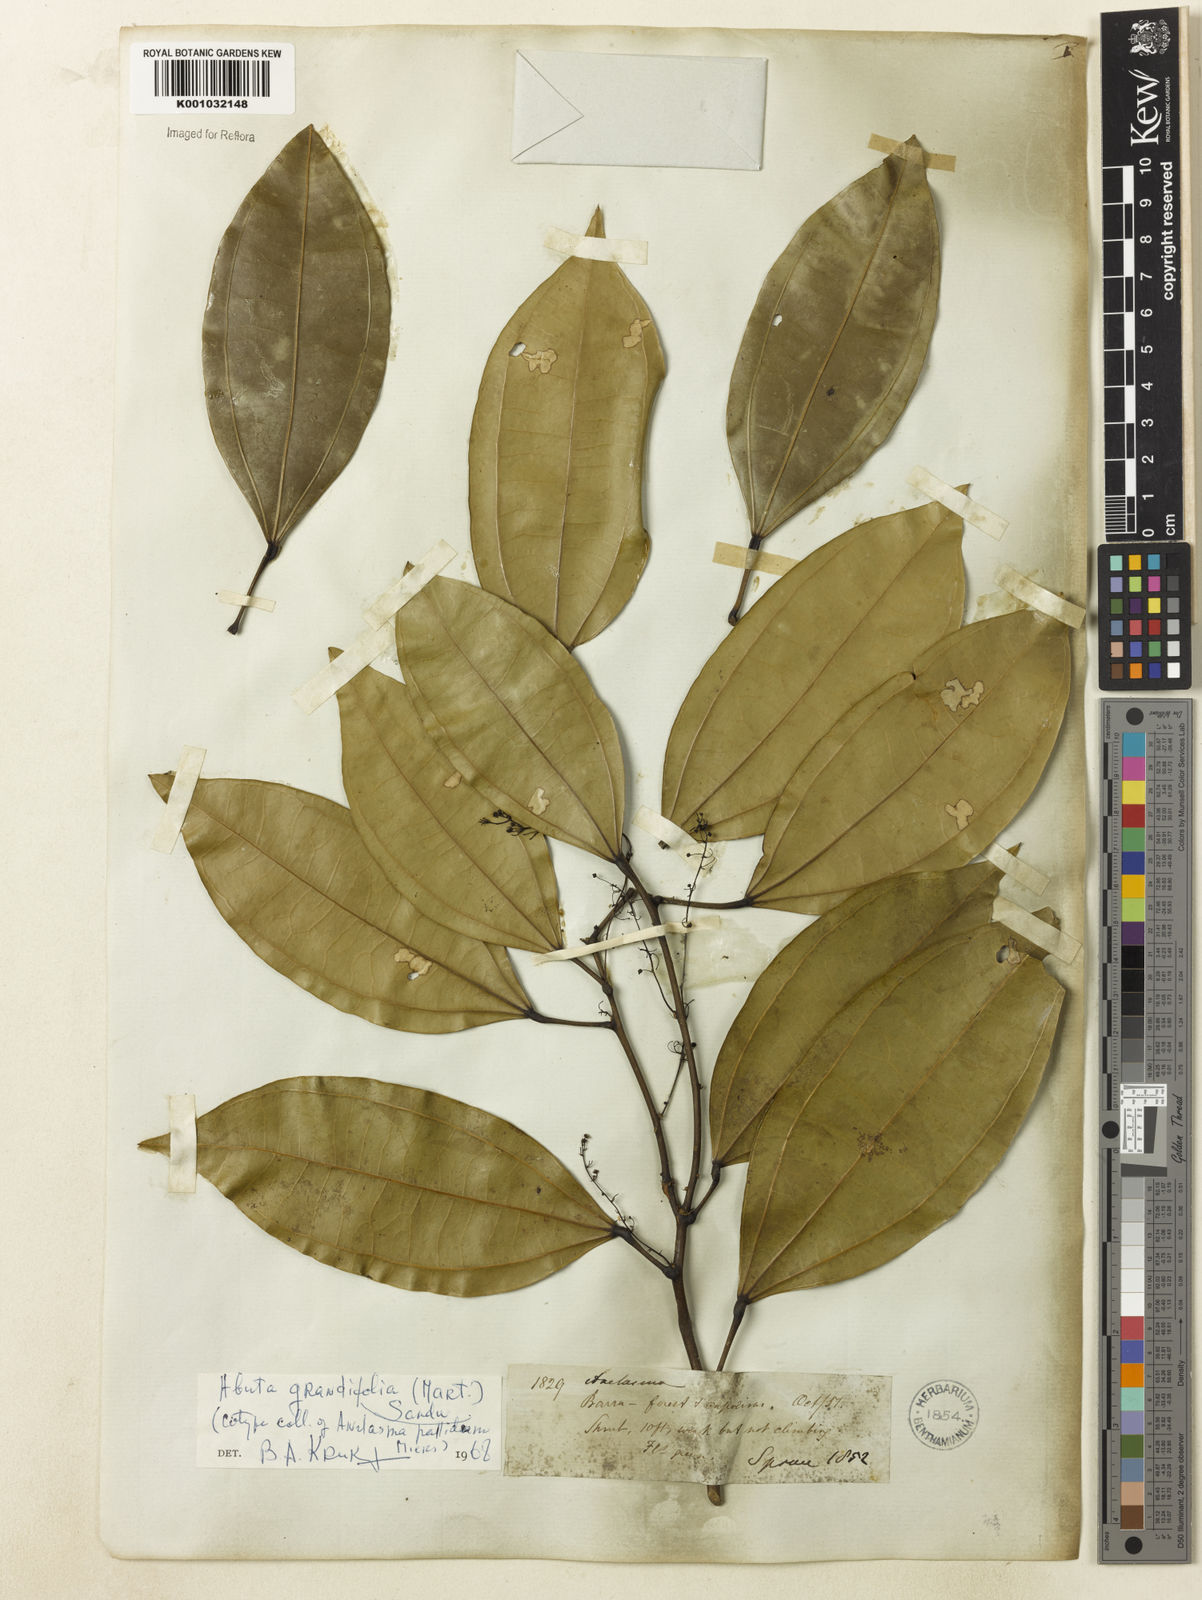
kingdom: Plantae
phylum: Tracheophyta
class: Magnoliopsida
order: Ranunculales
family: Menispermaceae
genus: Abuta
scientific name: Abuta grandifolia
